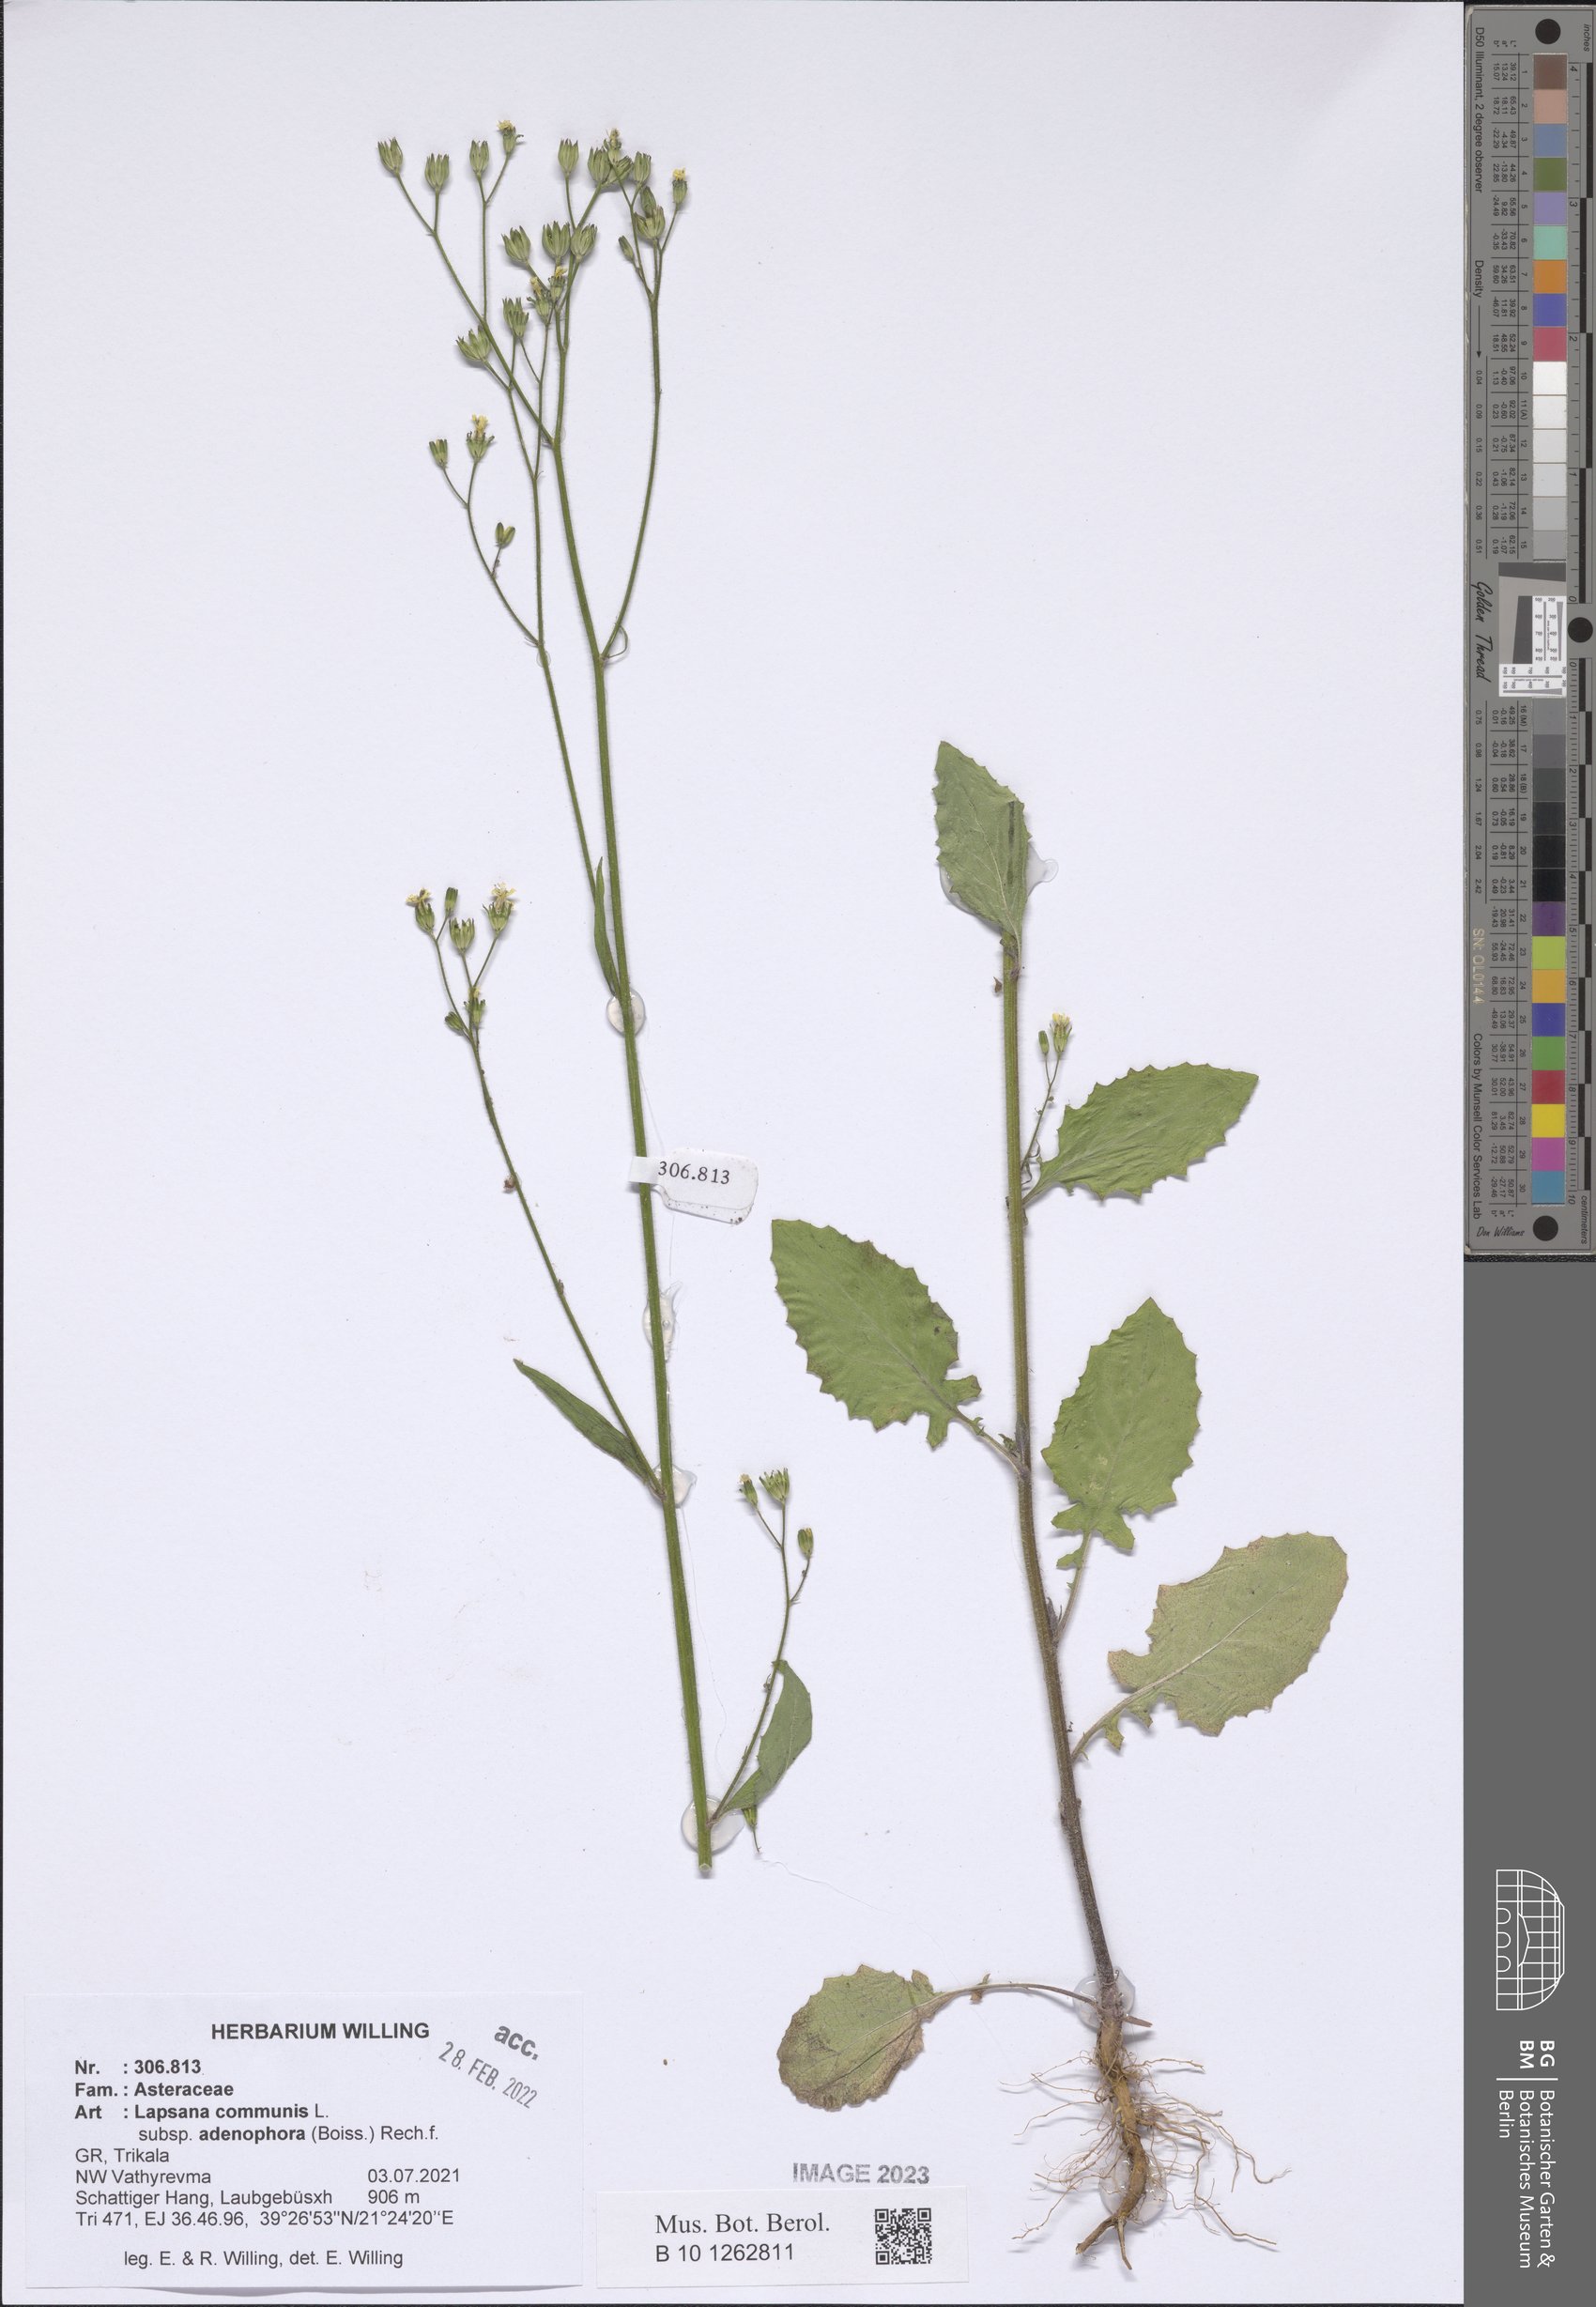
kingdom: Plantae
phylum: Tracheophyta
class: Magnoliopsida
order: Asterales
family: Asteraceae
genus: Lapsana
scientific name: Lapsana communis
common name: Nipplewort
